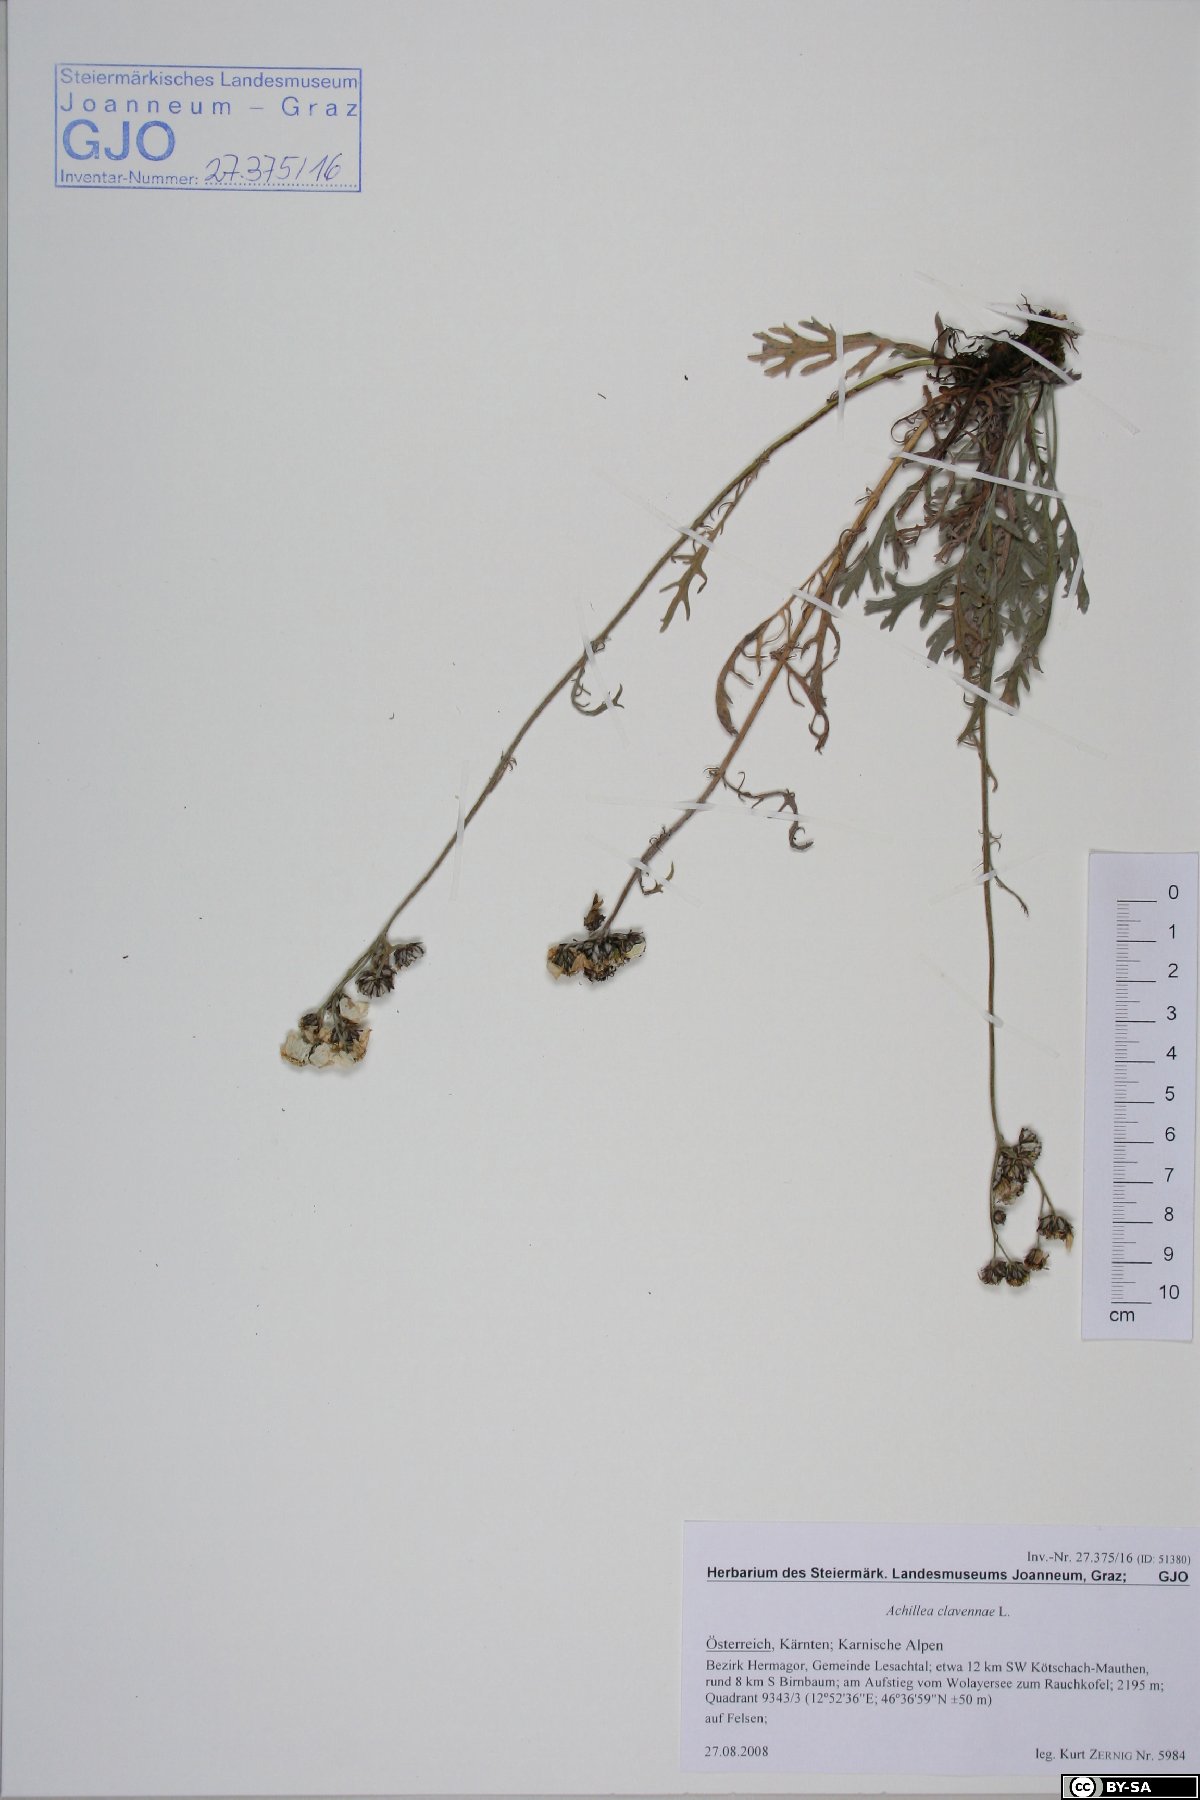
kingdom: Plantae
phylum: Tracheophyta
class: Magnoliopsida
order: Asterales
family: Asteraceae
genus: Achillea
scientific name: Achillea clavennae
